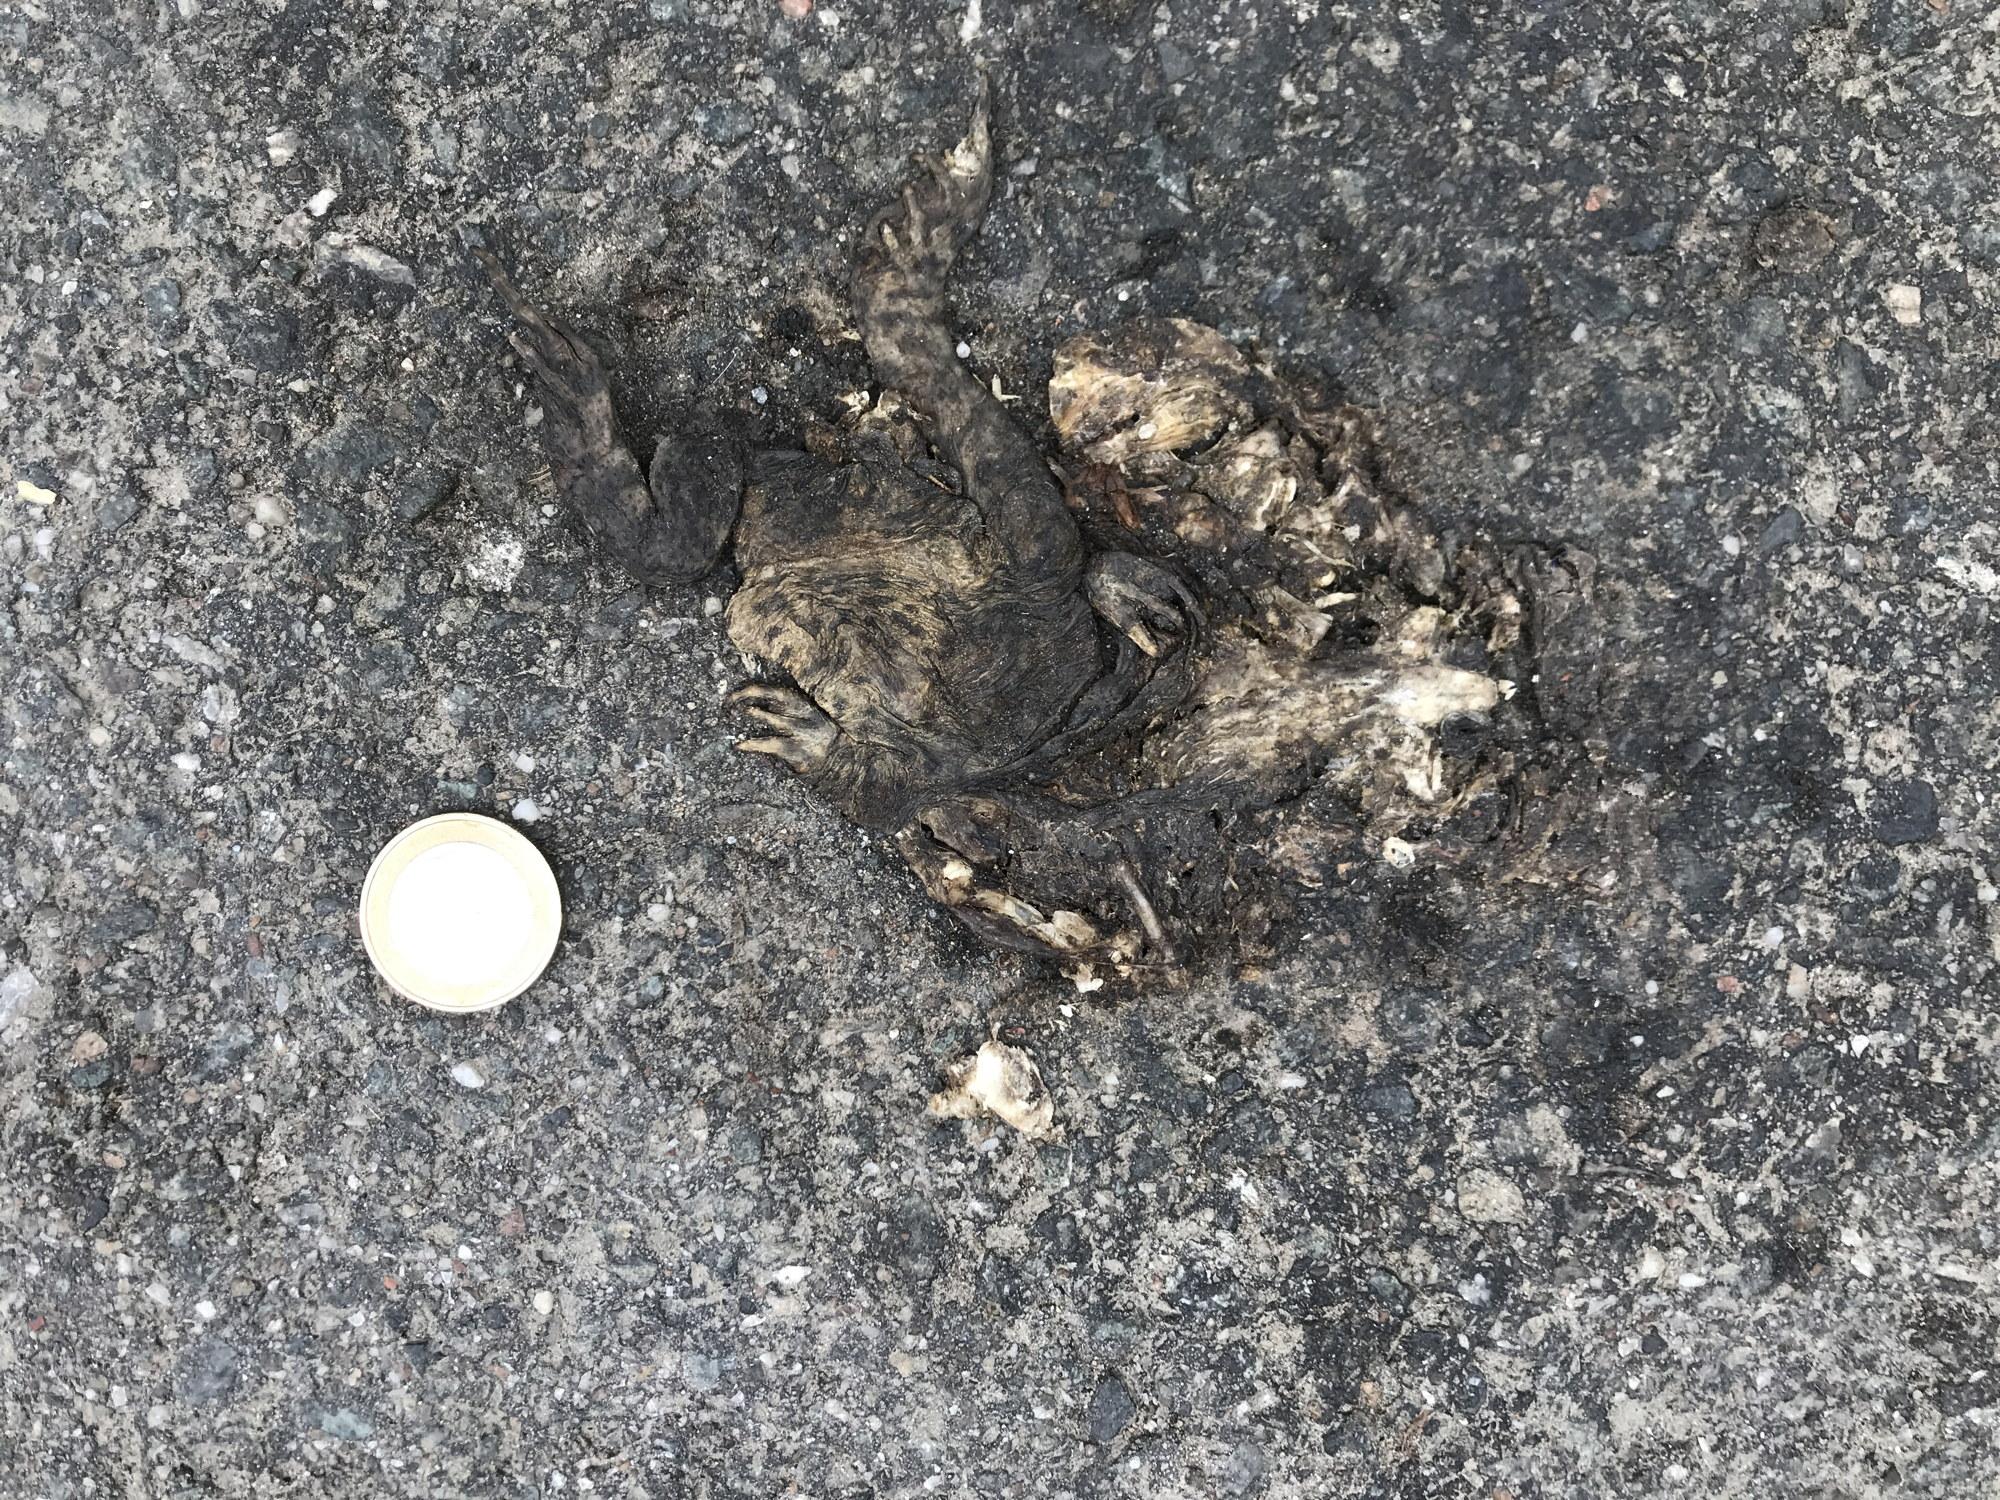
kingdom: Animalia
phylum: Chordata
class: Amphibia
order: Anura
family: Bufonidae
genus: Bufo
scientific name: Bufo bufo
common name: Common toad
